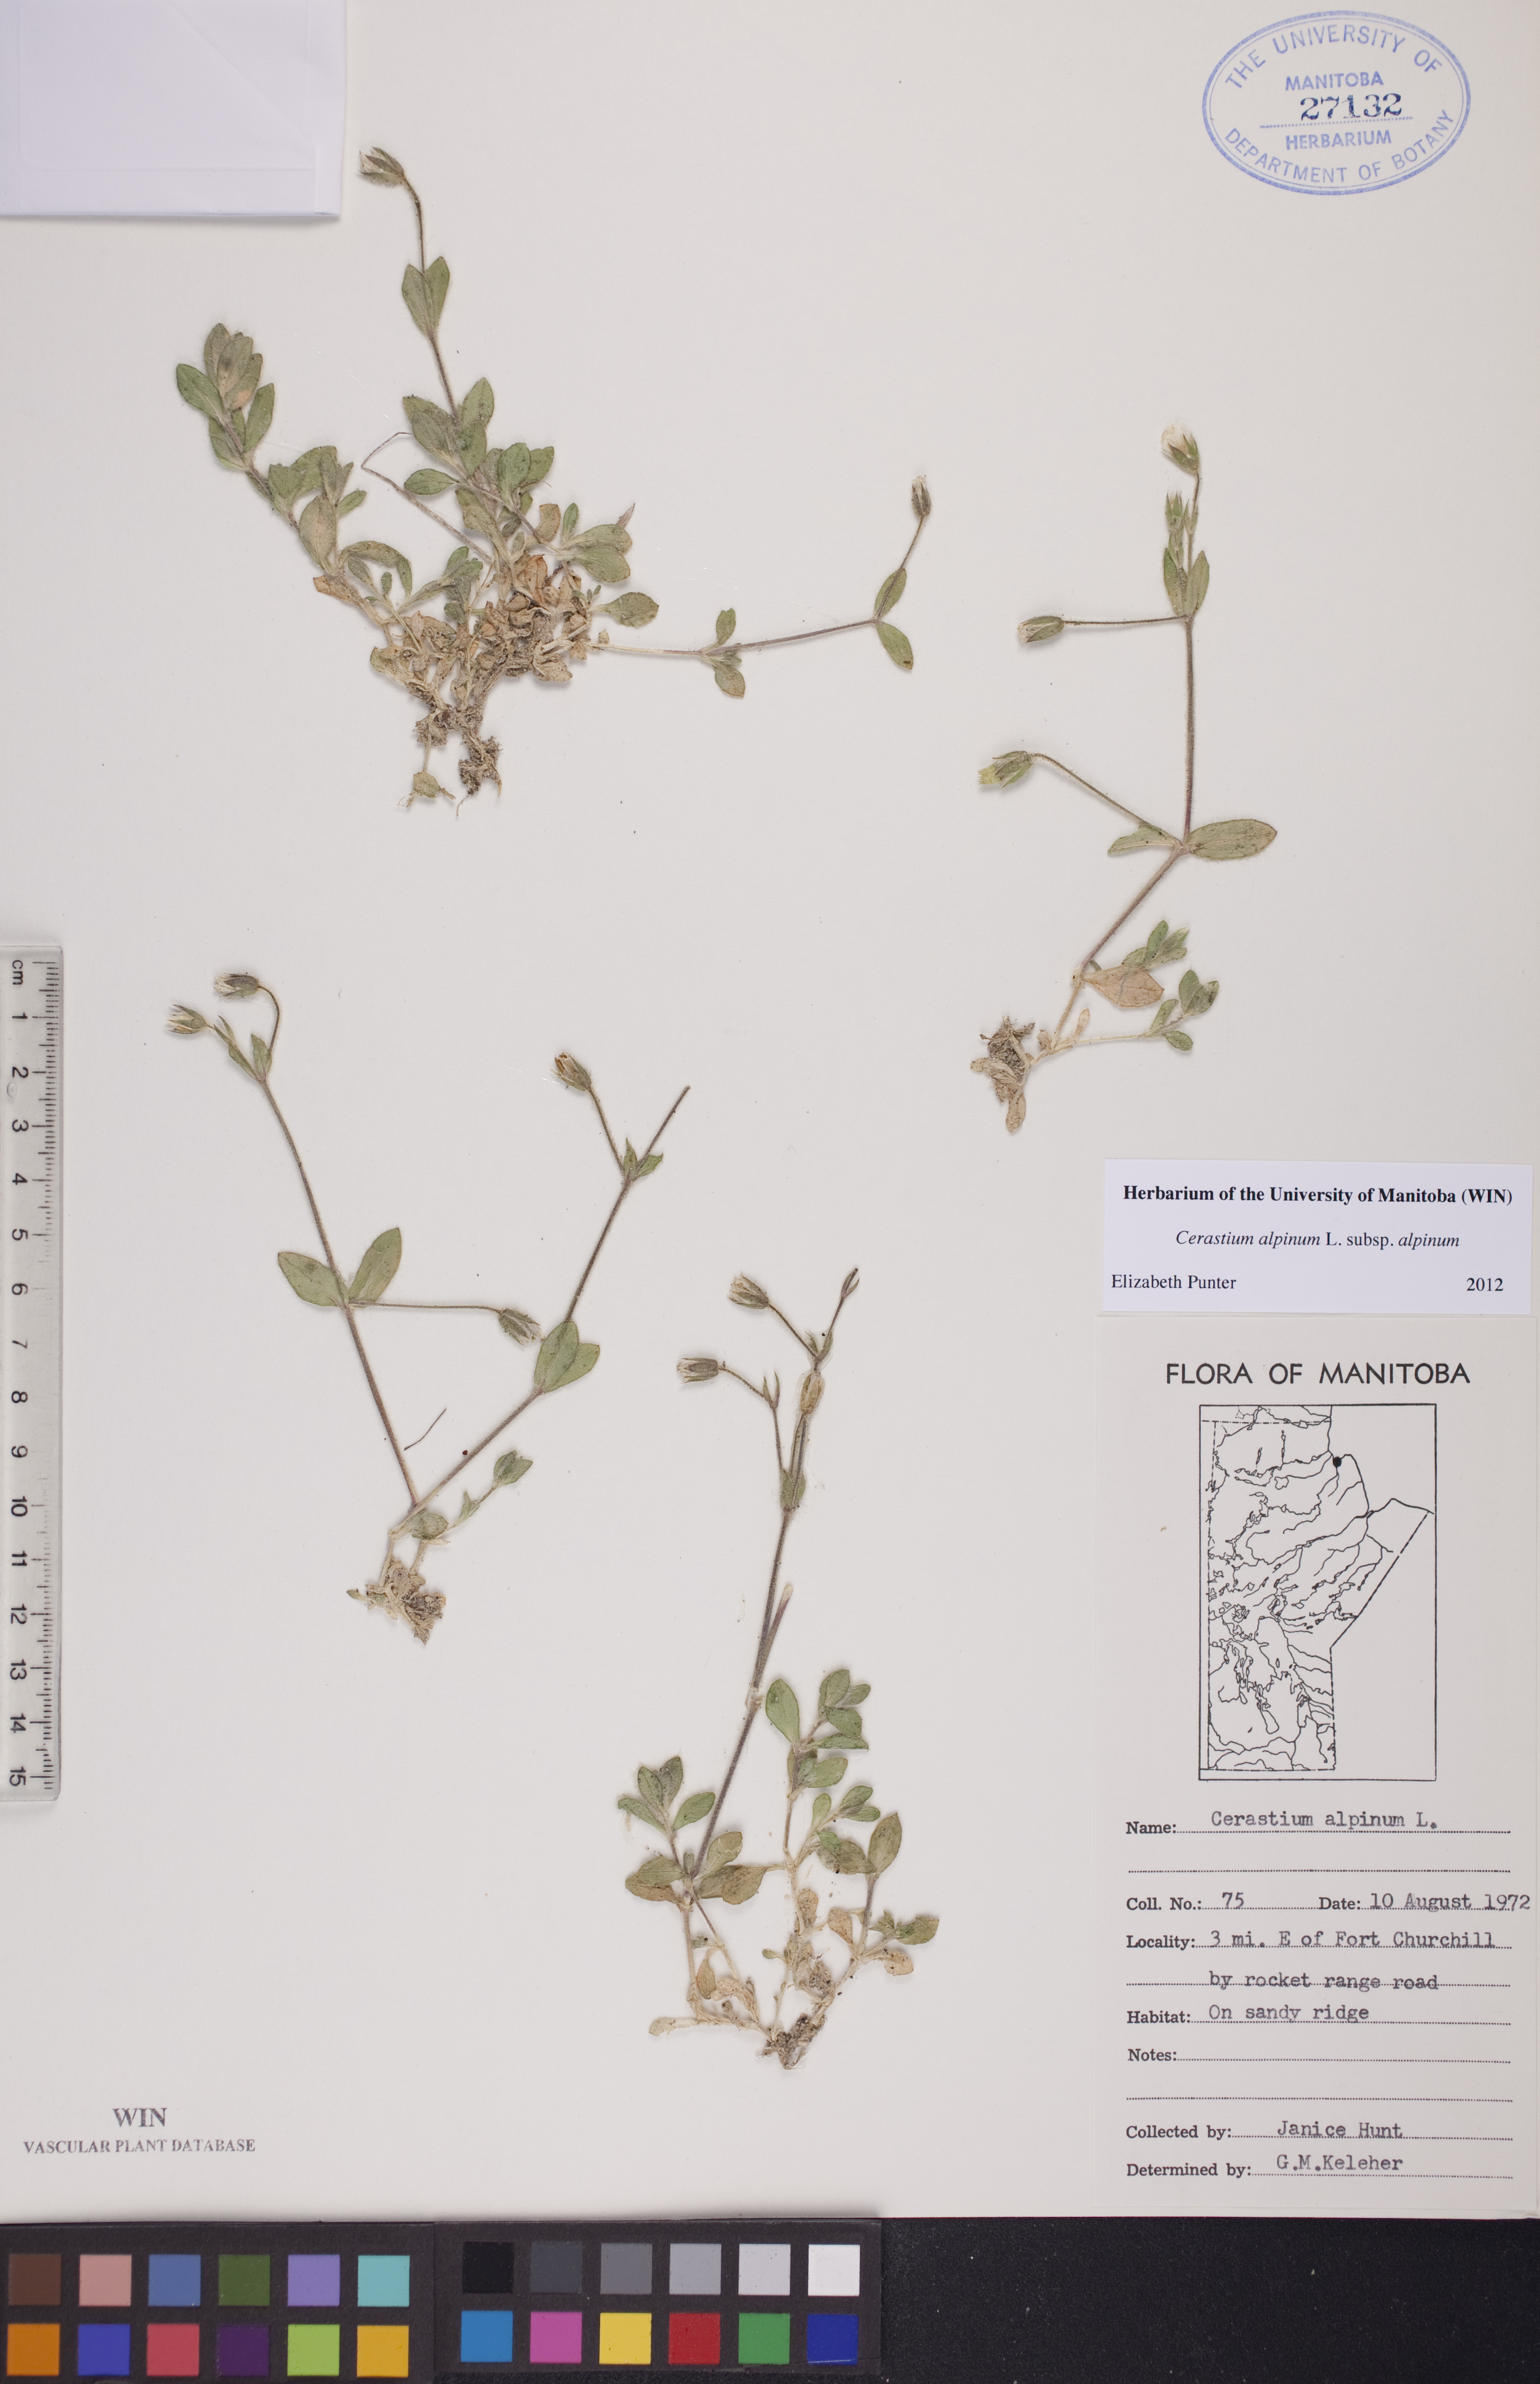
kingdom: Plantae
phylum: Tracheophyta
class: Magnoliopsida
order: Caryophyllales
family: Caryophyllaceae
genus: Cerastium
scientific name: Cerastium alpinum
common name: Alpine mouse-ear
